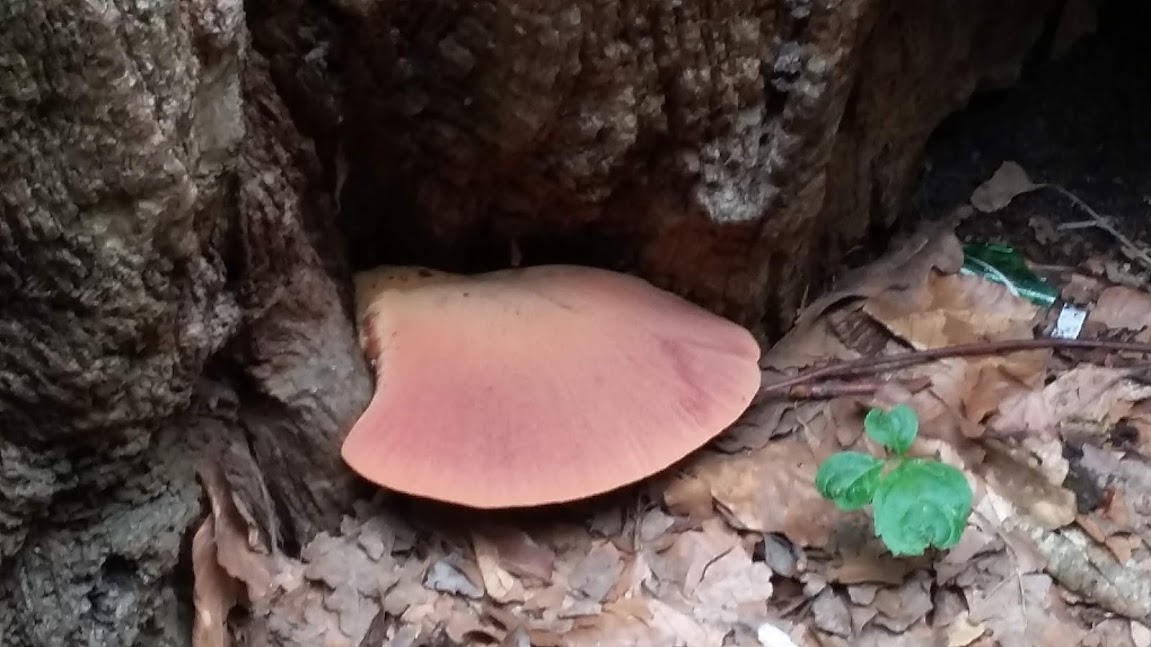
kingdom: Fungi
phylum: Basidiomycota
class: Agaricomycetes
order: Agaricales
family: Fistulinaceae
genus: Fistulina
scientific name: Fistulina hepatica
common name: oksetunge
